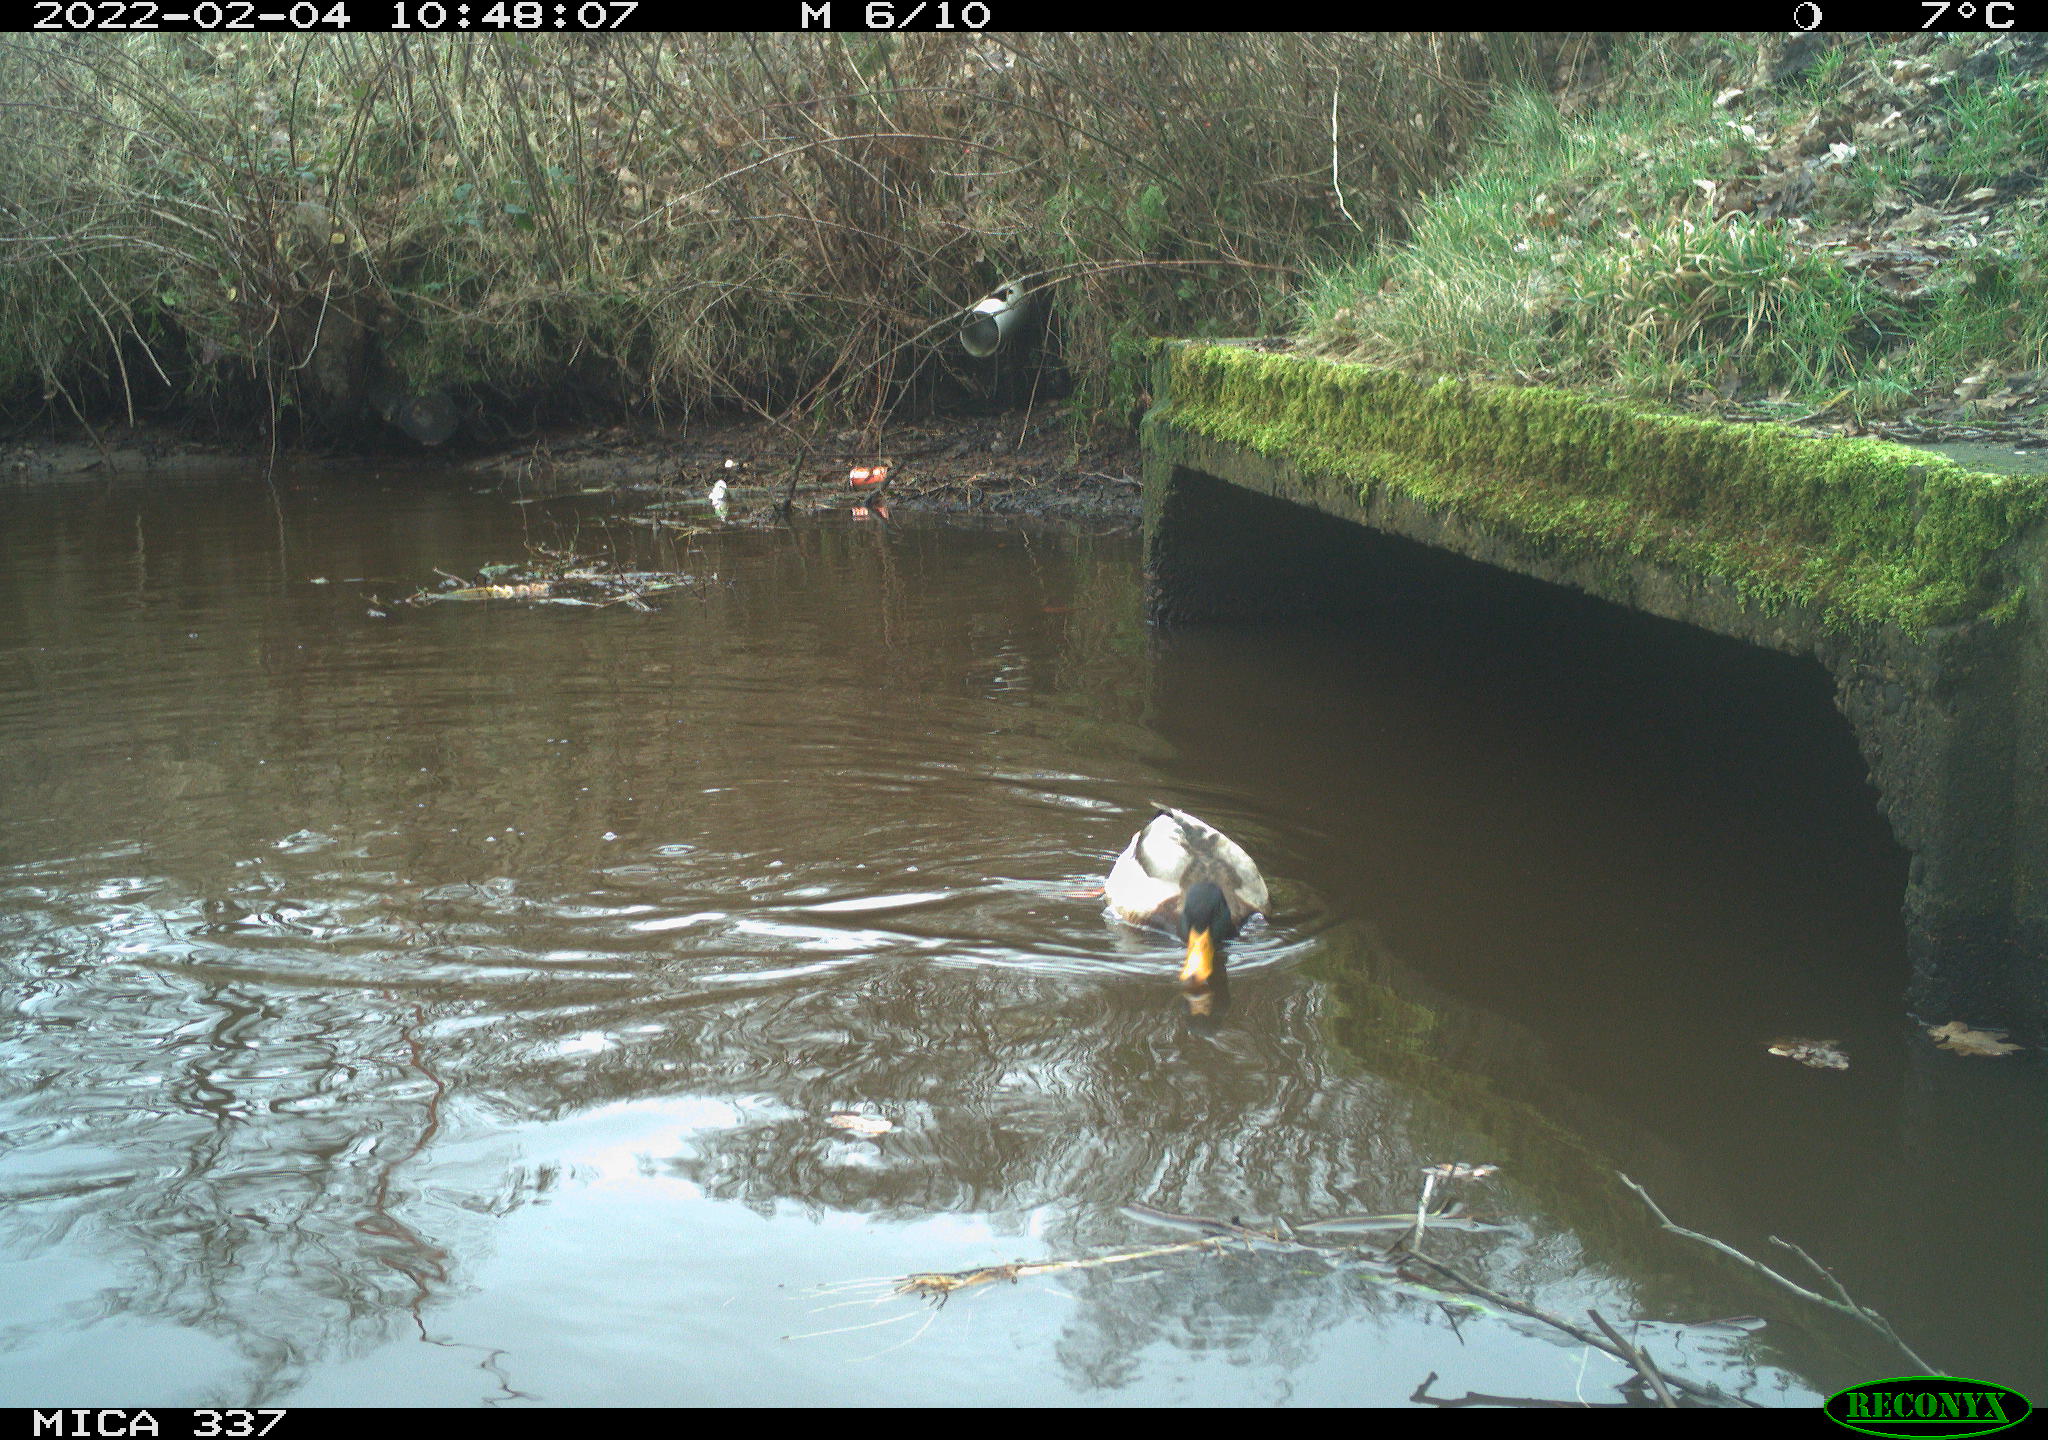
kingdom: Animalia
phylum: Chordata
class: Aves
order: Anseriformes
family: Anatidae
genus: Anas
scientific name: Anas platyrhynchos
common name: Mallard
